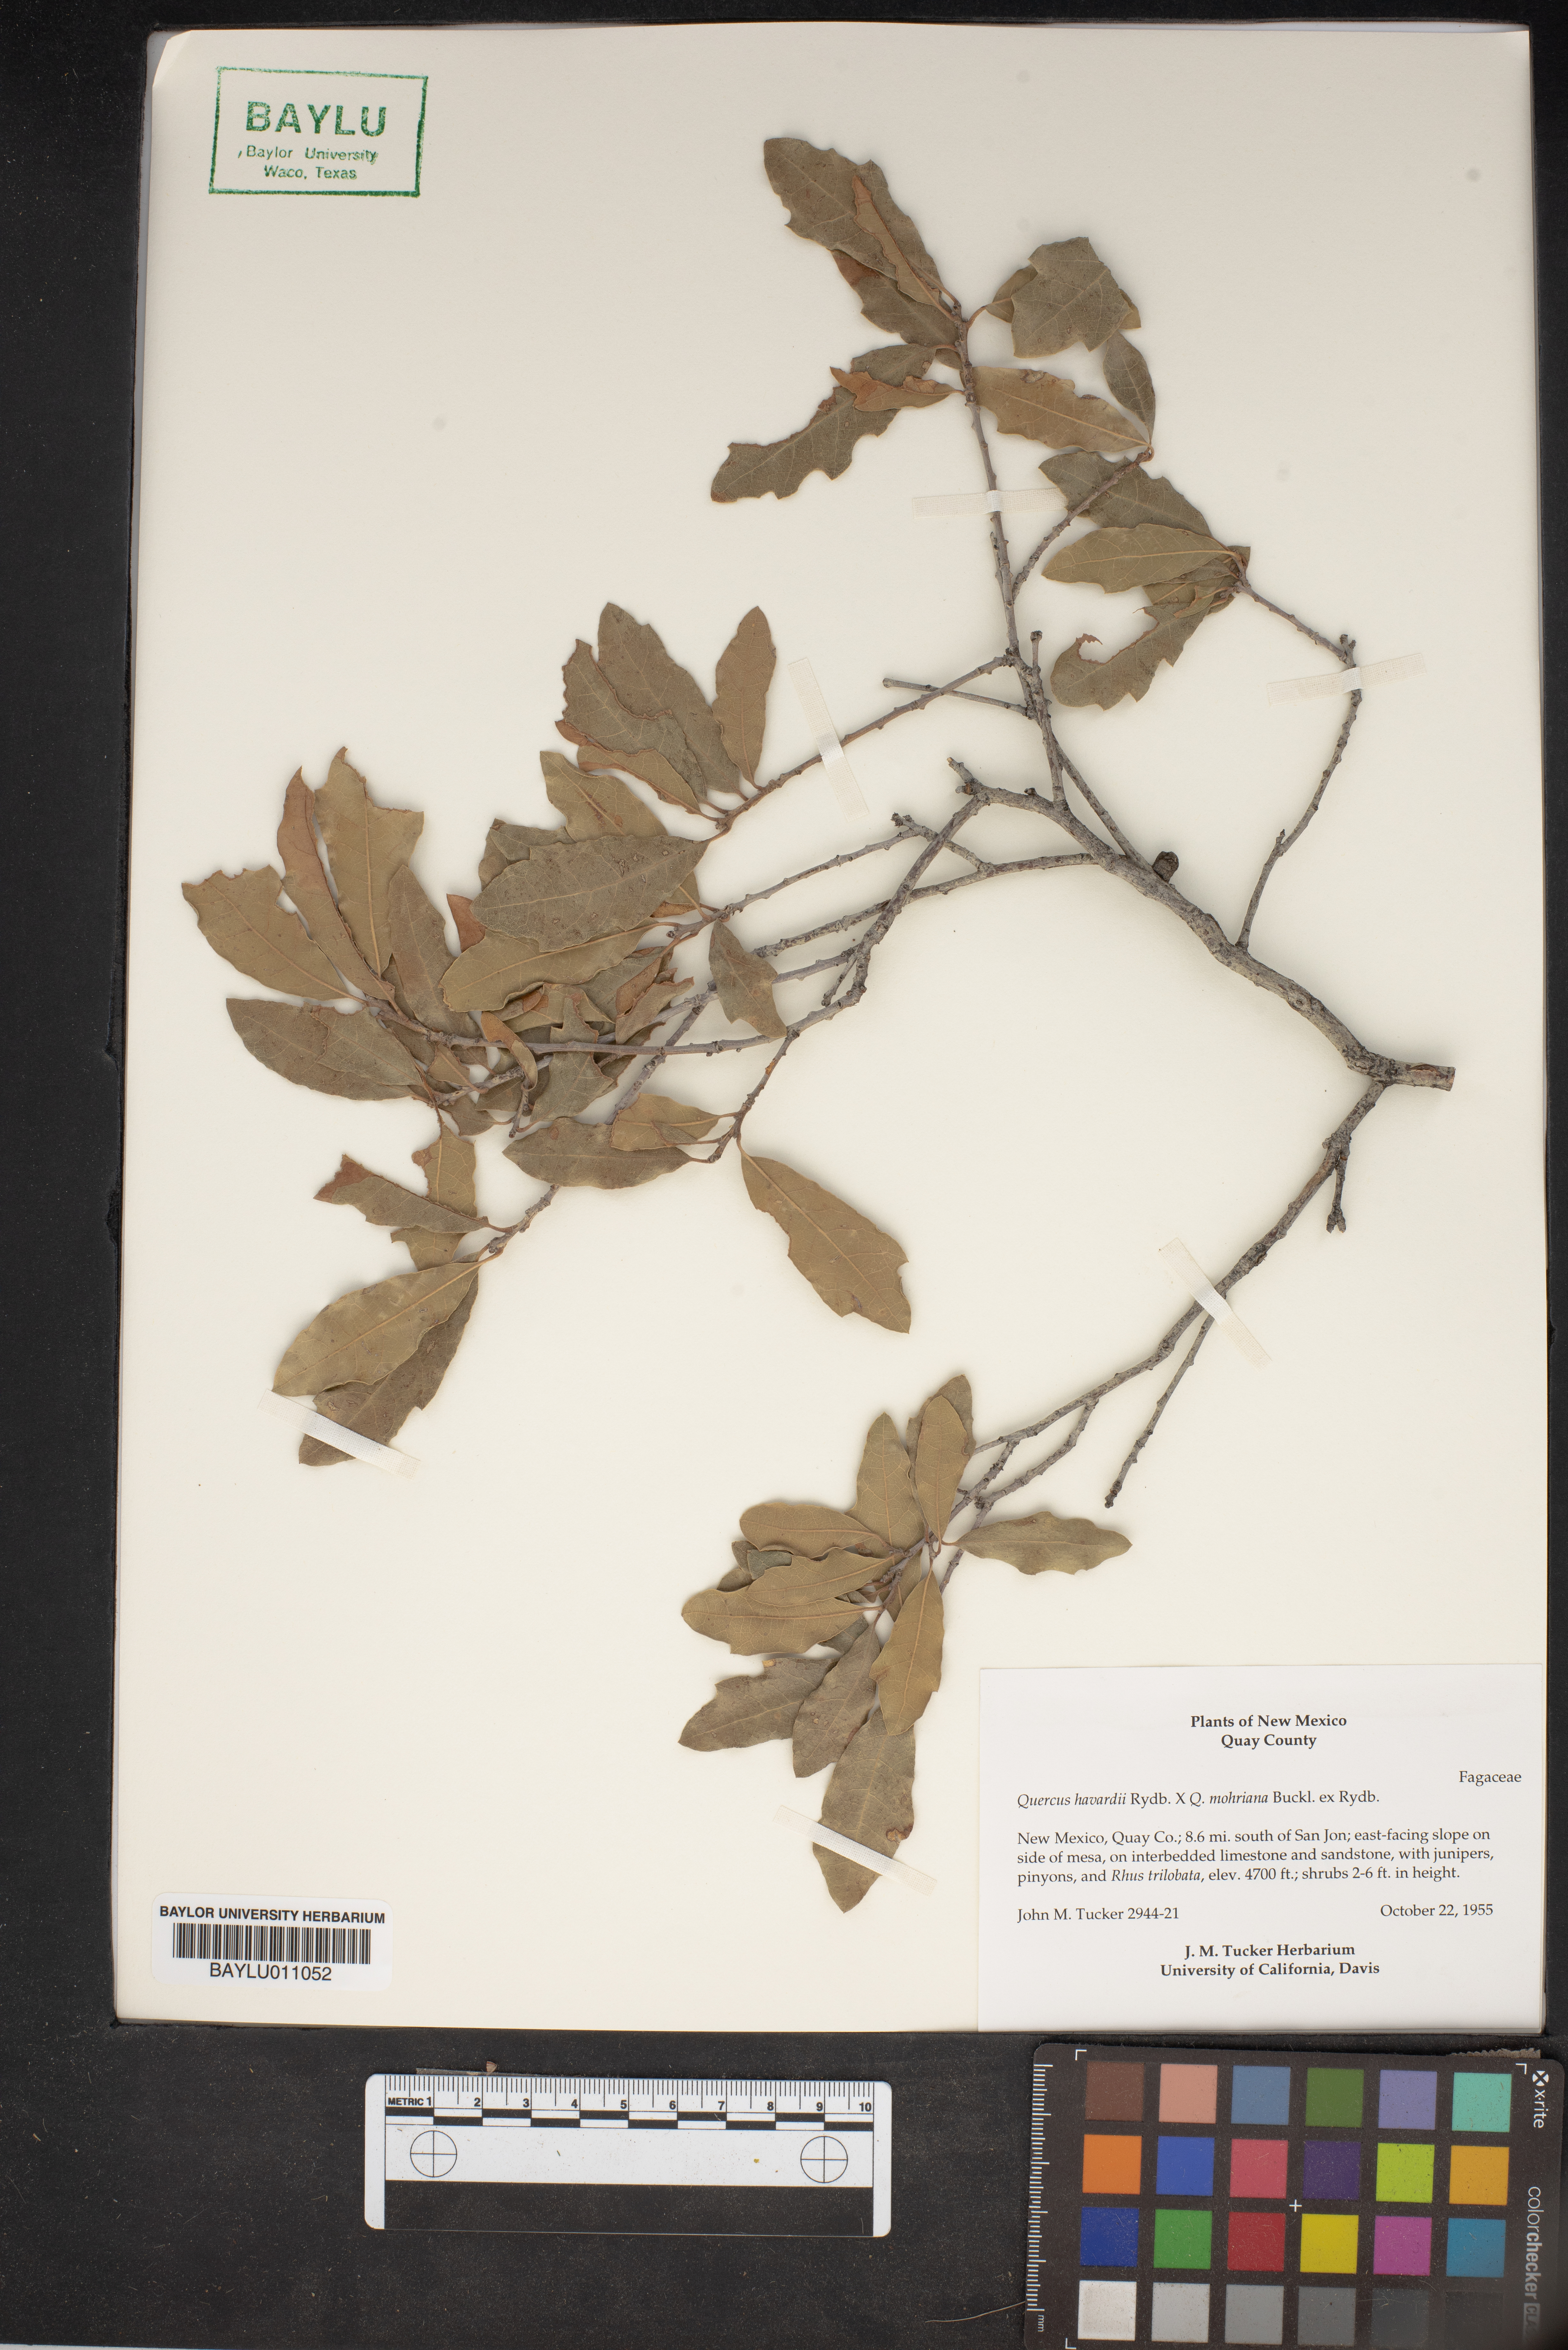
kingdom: Plantae
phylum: Tracheophyta
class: Magnoliopsida
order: Fagales
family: Fagaceae
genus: Quercus
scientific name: Quercus havardii
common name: Shinnery oak
